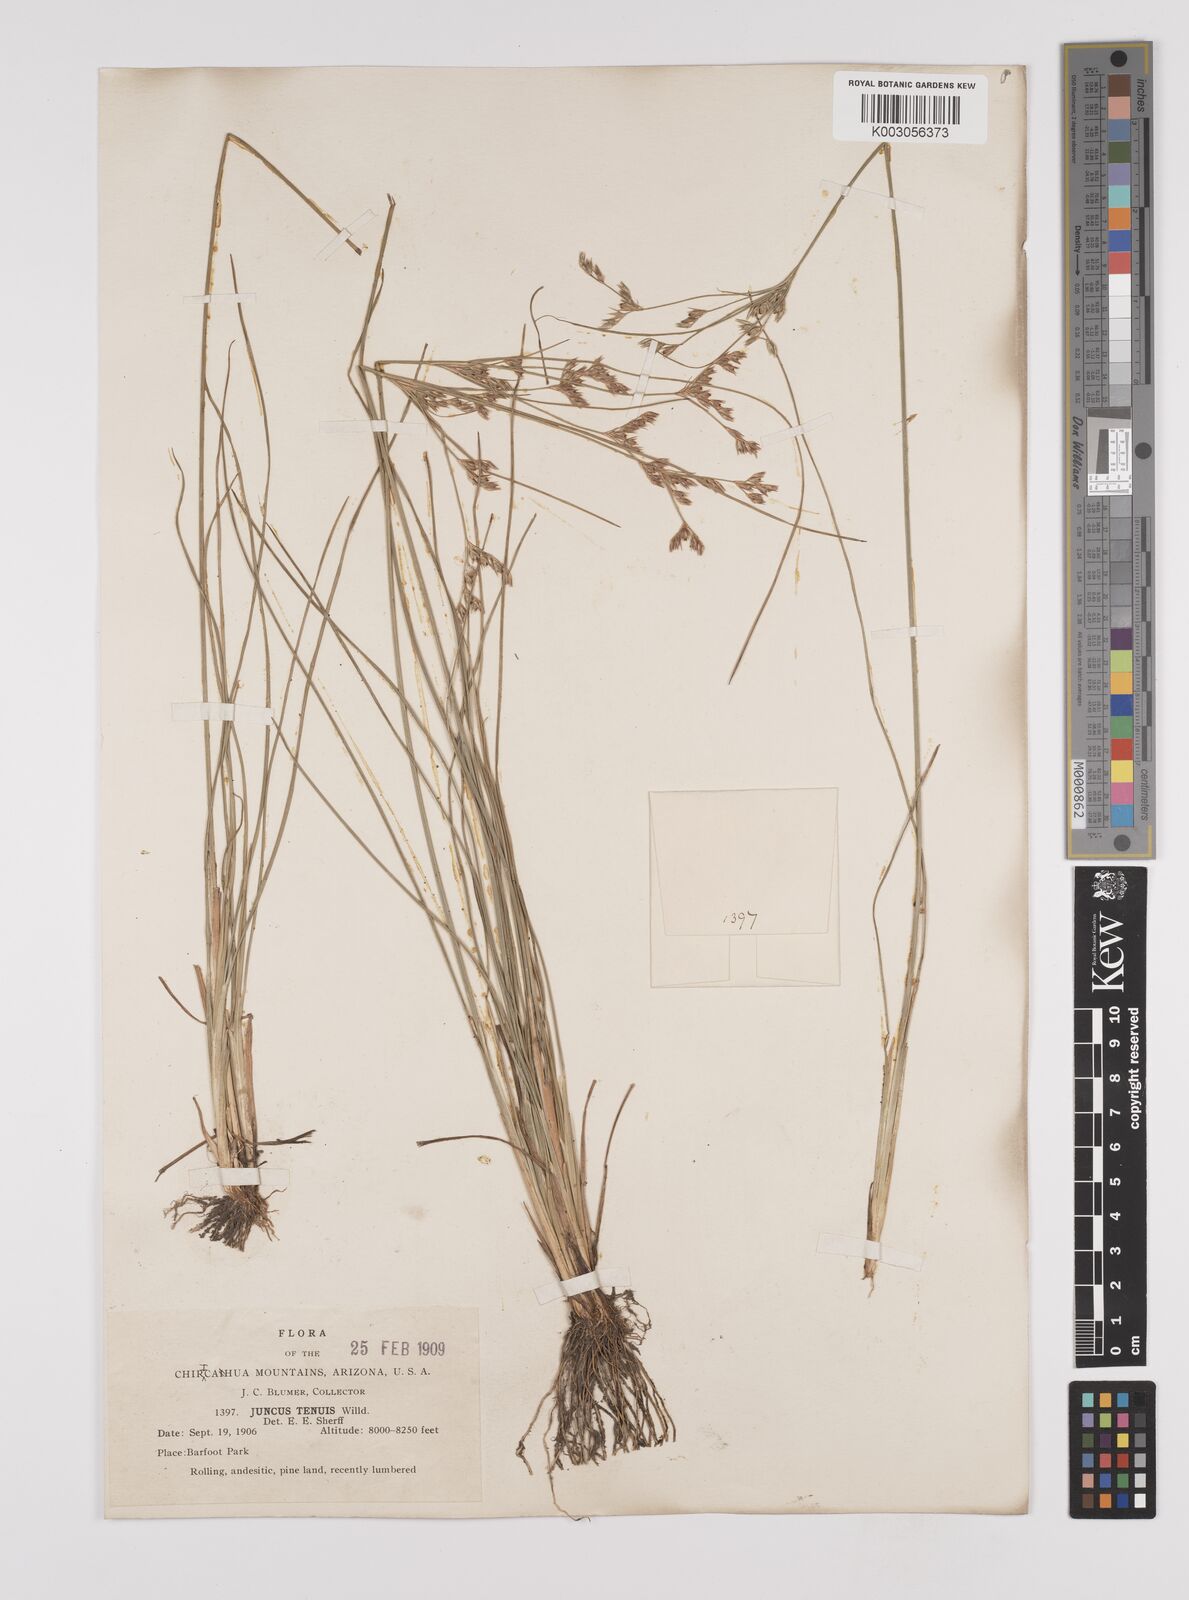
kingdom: Plantae
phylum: Tracheophyta
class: Liliopsida
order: Poales
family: Juncaceae
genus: Juncus
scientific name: Juncus tenuis
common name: Slender rush
